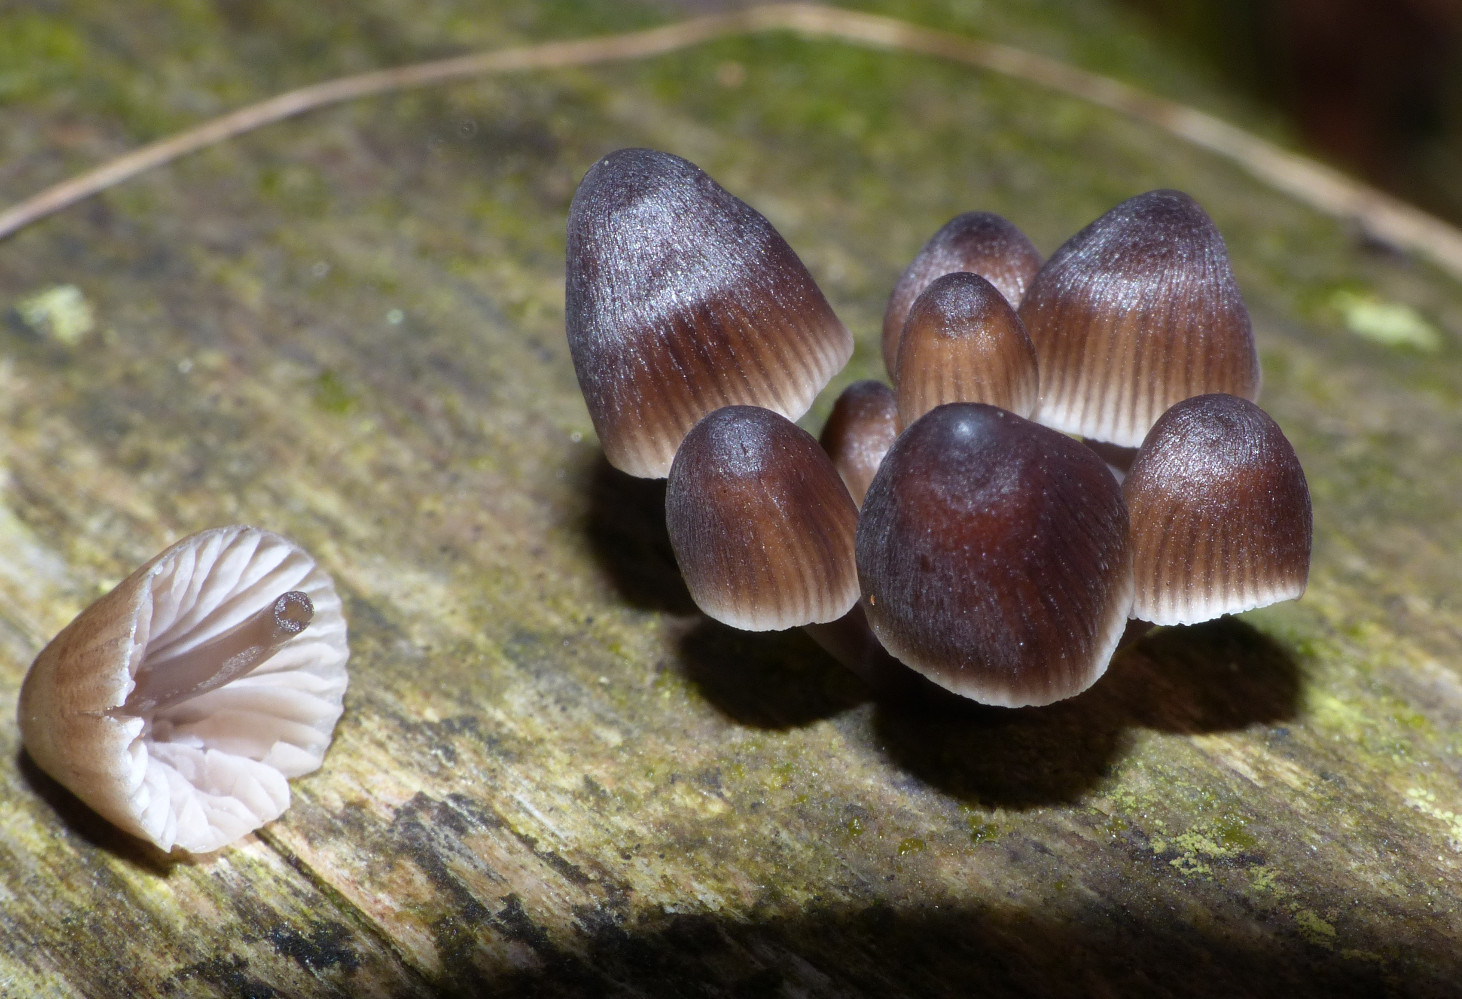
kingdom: Fungi
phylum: Basidiomycota
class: Agaricomycetes
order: Agaricales
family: Mycenaceae
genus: Mycena
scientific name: Mycena stipata
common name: stinkende huesvamp
